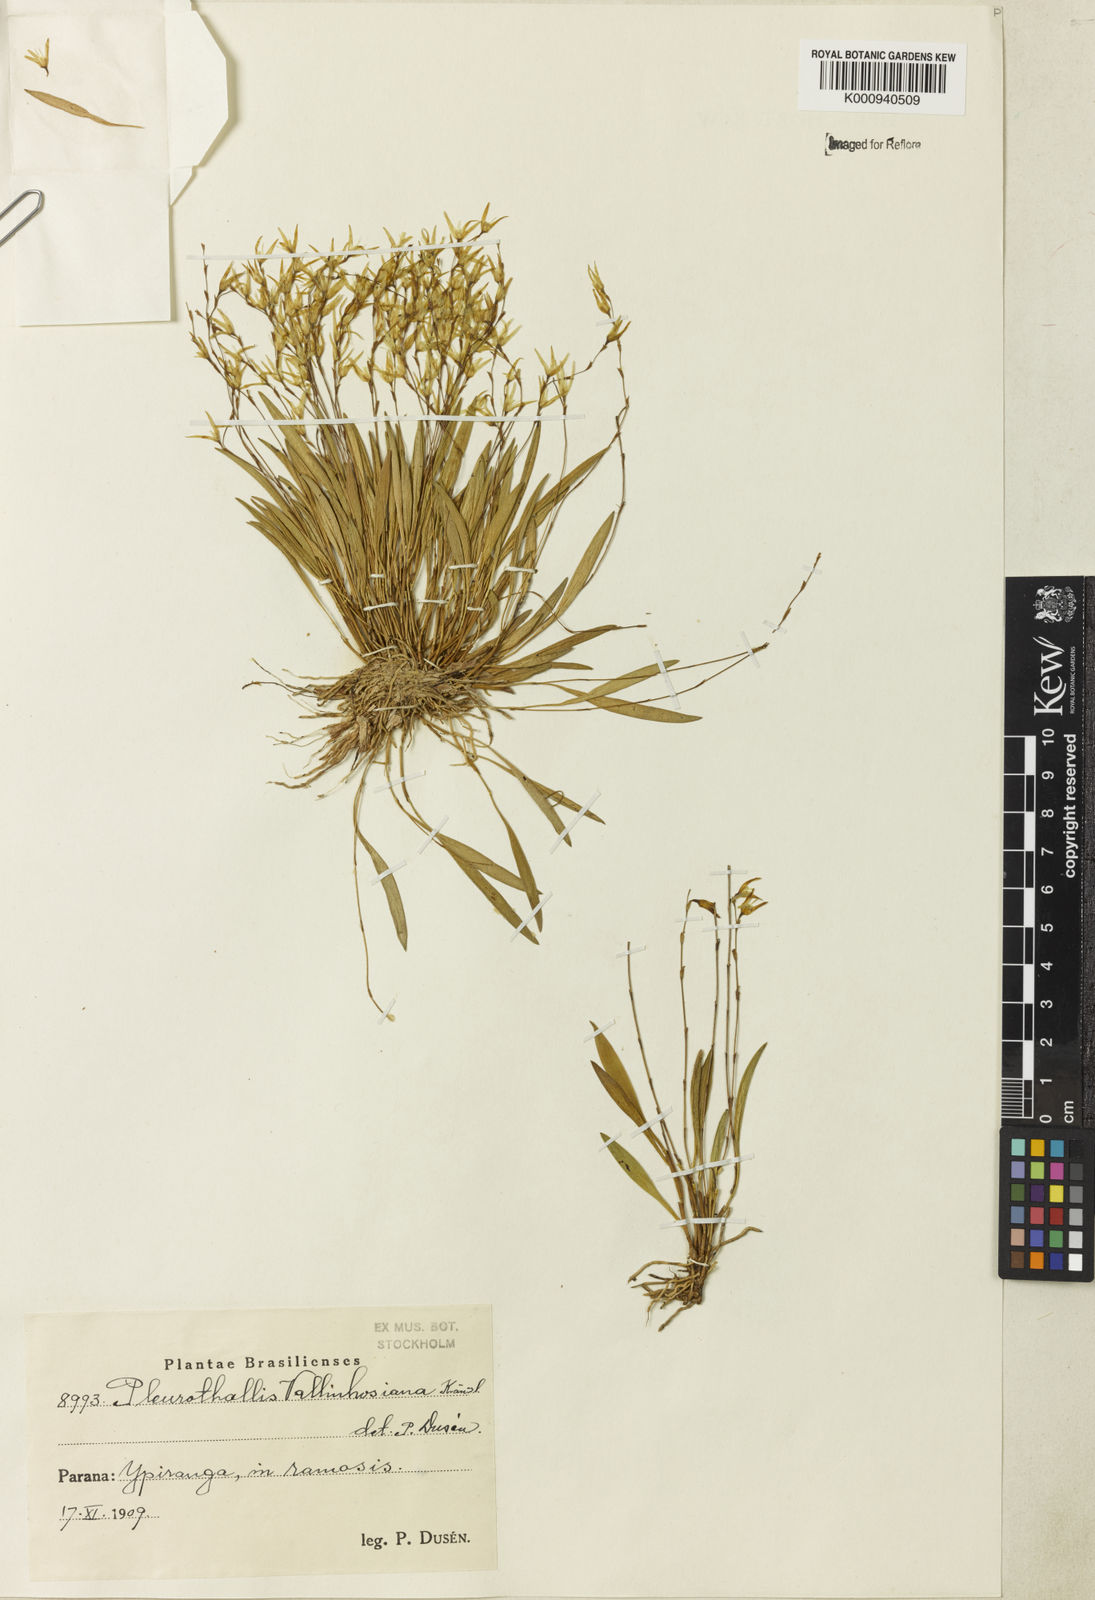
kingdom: Plantae
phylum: Tracheophyta
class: Liliopsida
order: Asparagales
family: Orchidaceae
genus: Anathallis
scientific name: Anathallis linearifolia
